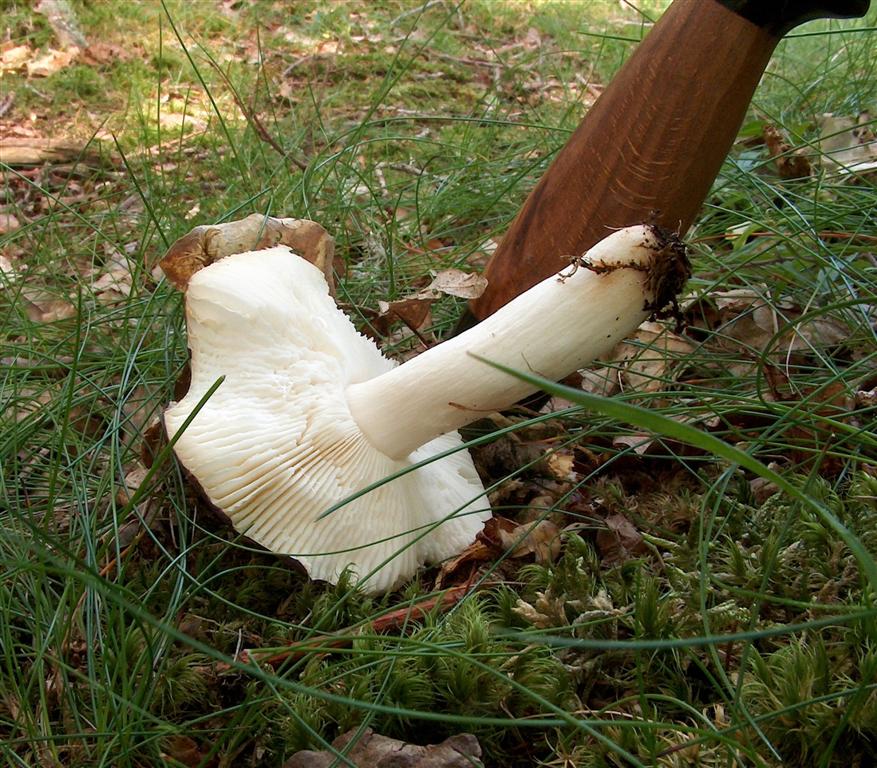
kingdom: Fungi
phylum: Basidiomycota
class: Agaricomycetes
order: Russulales
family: Russulaceae
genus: Russula
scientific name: Russula
